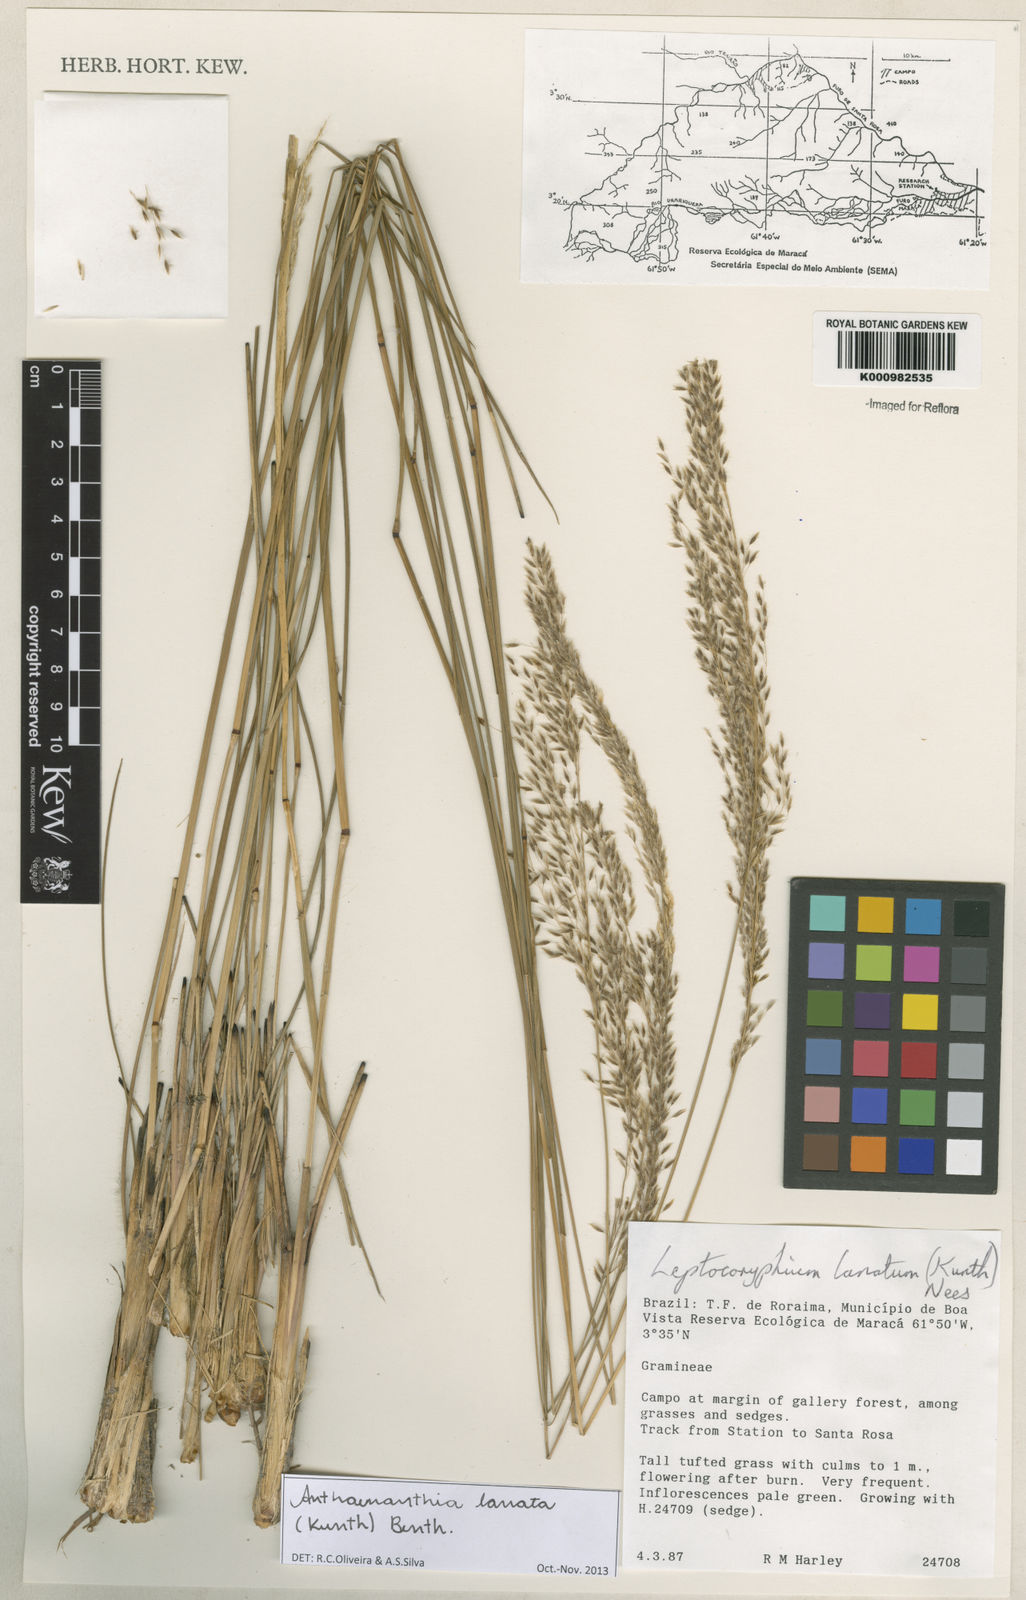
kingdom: Plantae
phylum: Tracheophyta
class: Liliopsida
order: Poales
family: Poaceae
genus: Anthenantia
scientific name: Anthenantia lanata
